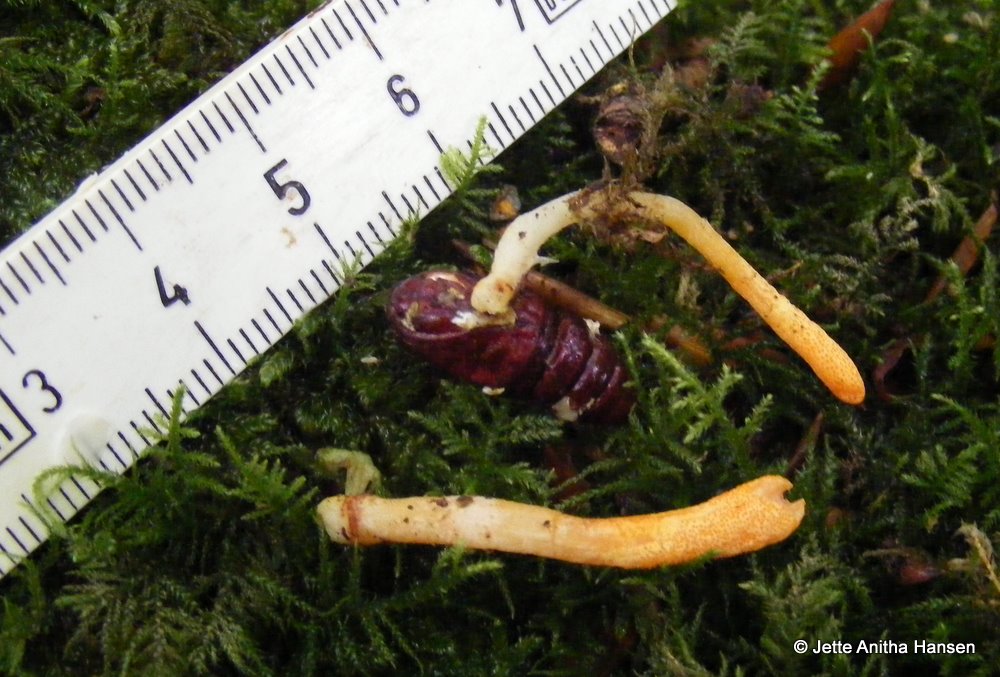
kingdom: Fungi
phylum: Ascomycota
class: Sordariomycetes
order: Hypocreales
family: Cordycipitaceae
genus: Cordyceps
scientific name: Cordyceps militaris
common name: puppe-snyltekølle
